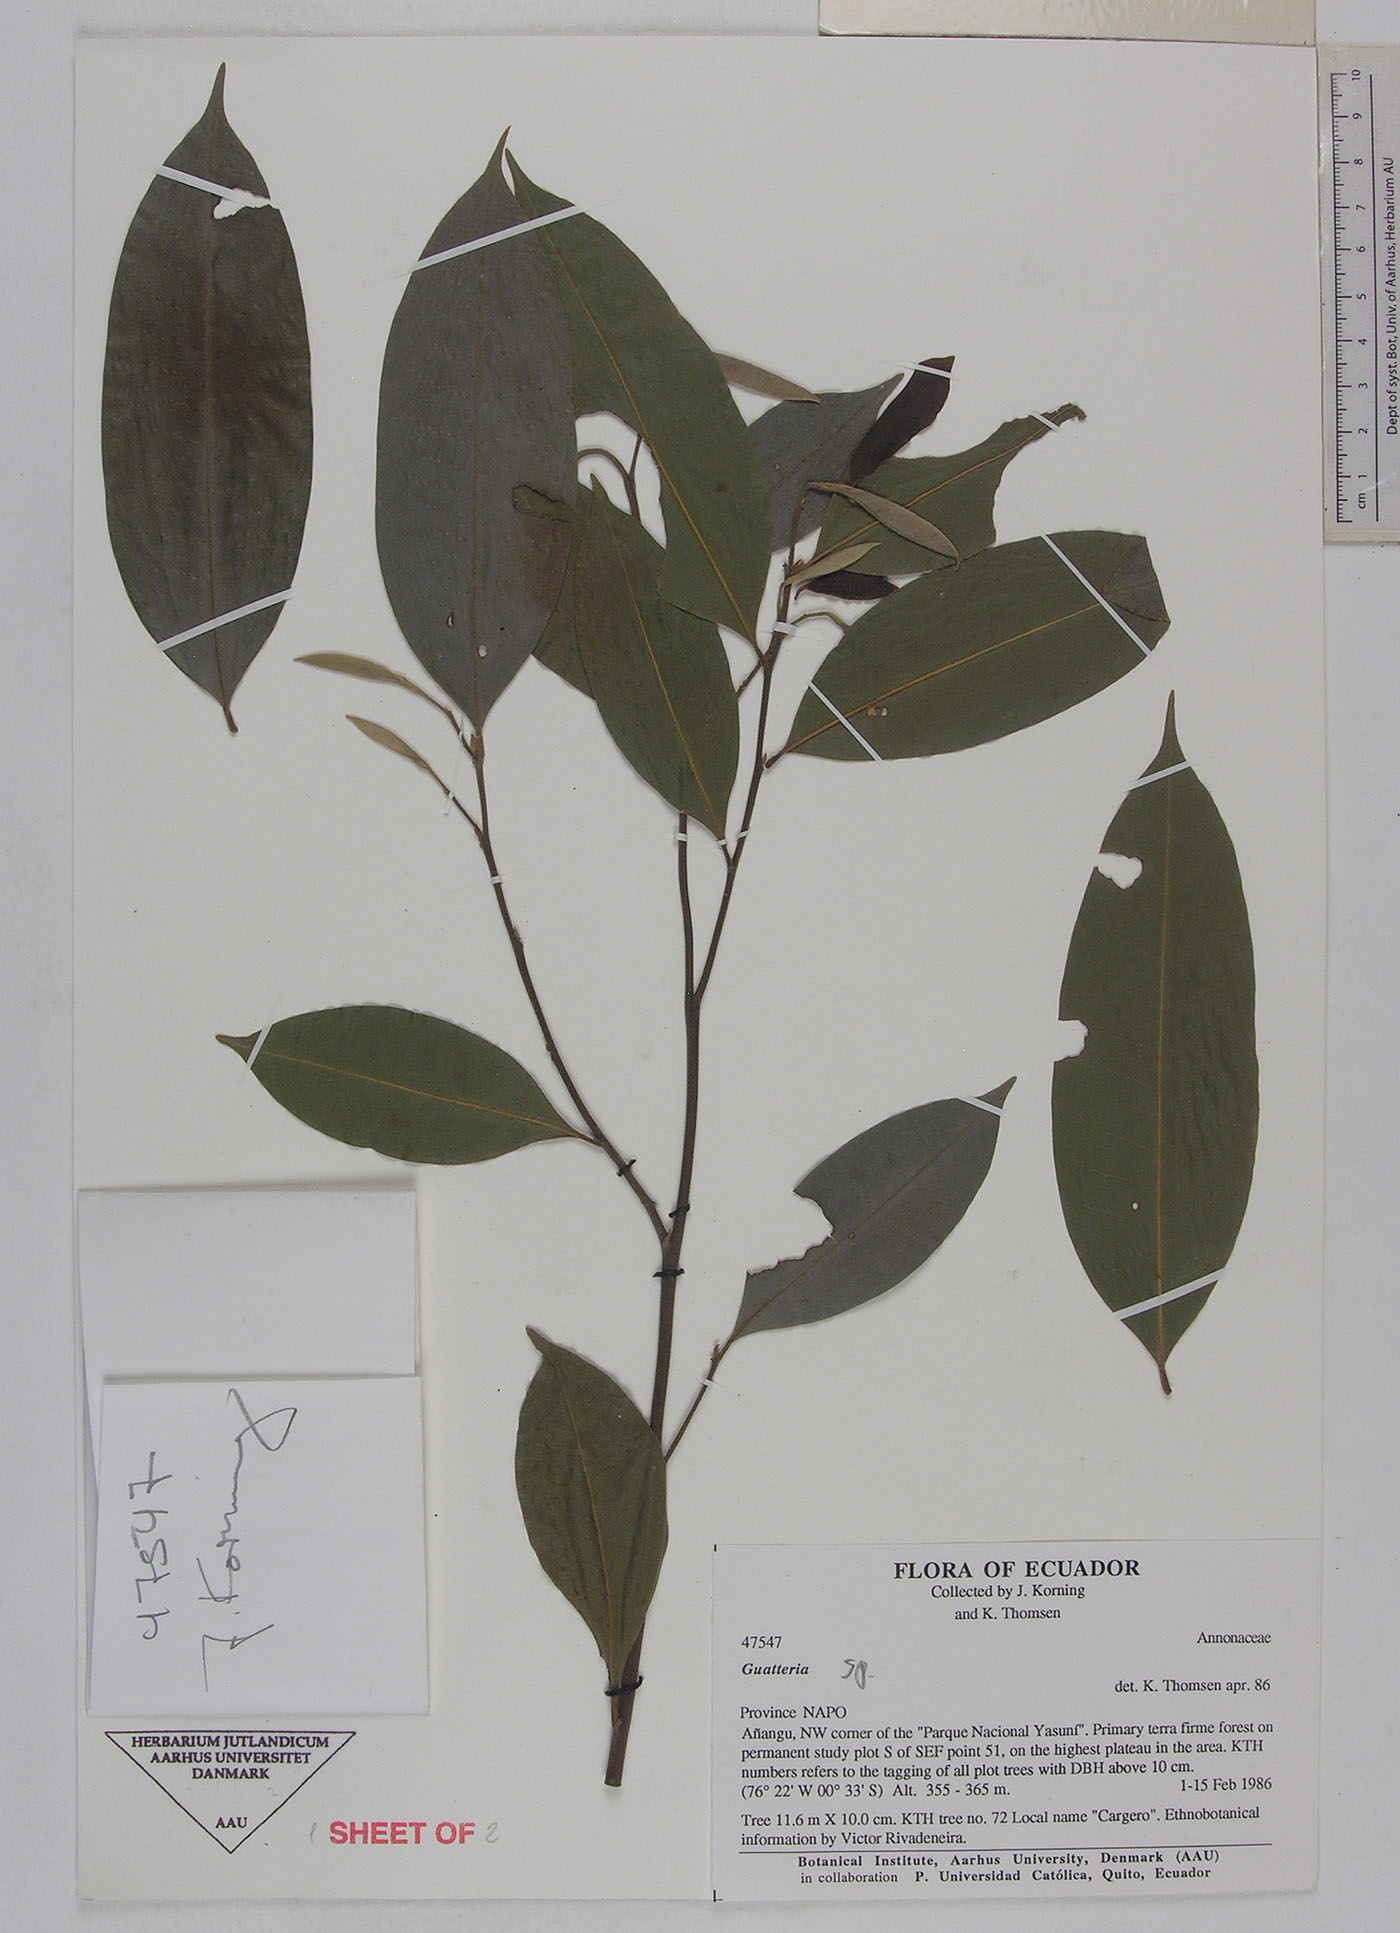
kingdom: Plantae
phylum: Tracheophyta
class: Magnoliopsida
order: Magnoliales
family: Annonaceae
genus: Guatteria
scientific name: Guatteria duodecima
